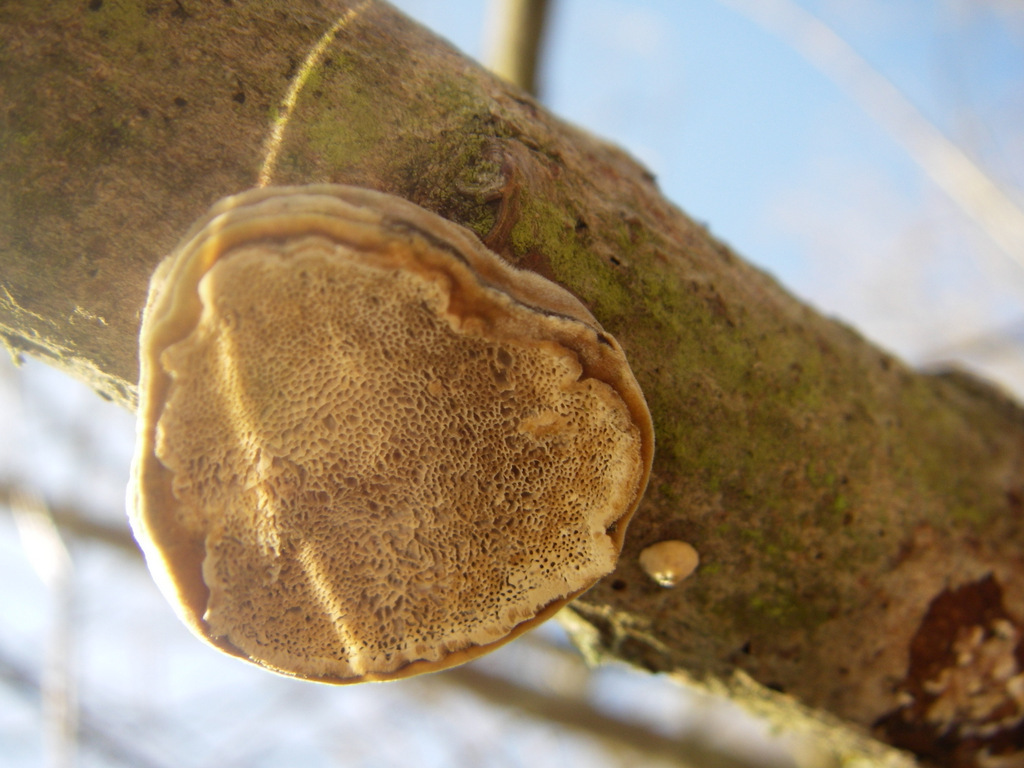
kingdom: Fungi
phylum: Basidiomycota
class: Agaricomycetes
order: Polyporales
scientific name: Polyporales
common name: poresvampordenen
